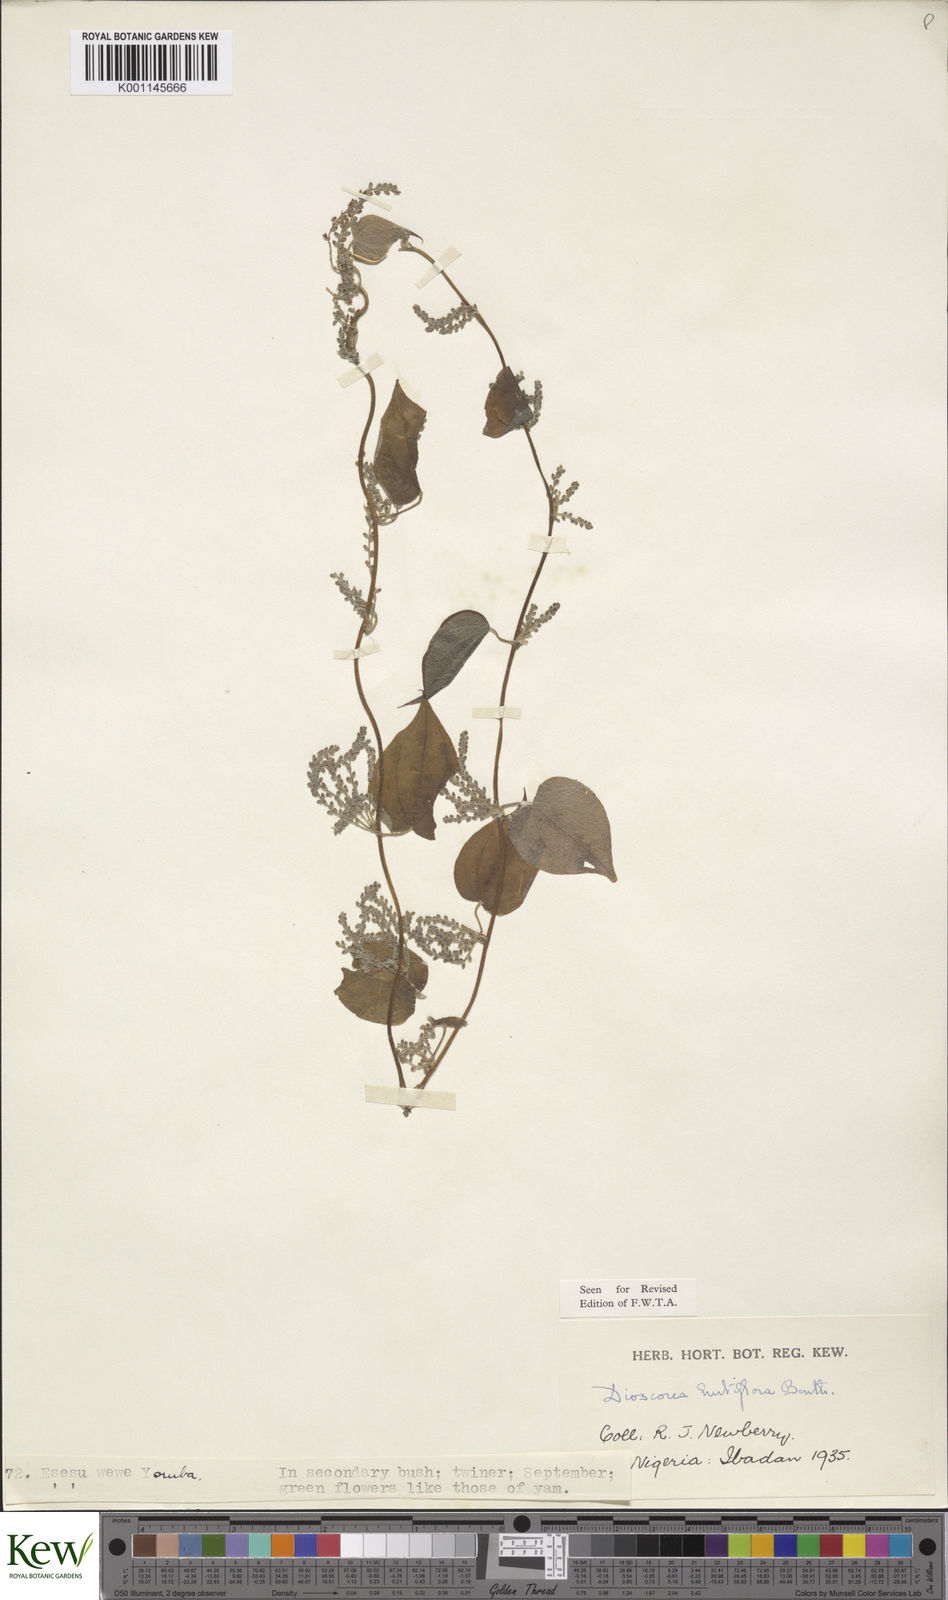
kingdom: Plantae
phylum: Tracheophyta
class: Liliopsida
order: Dioscoreales
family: Dioscoreaceae
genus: Dioscorea
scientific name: Dioscorea hirtiflora
